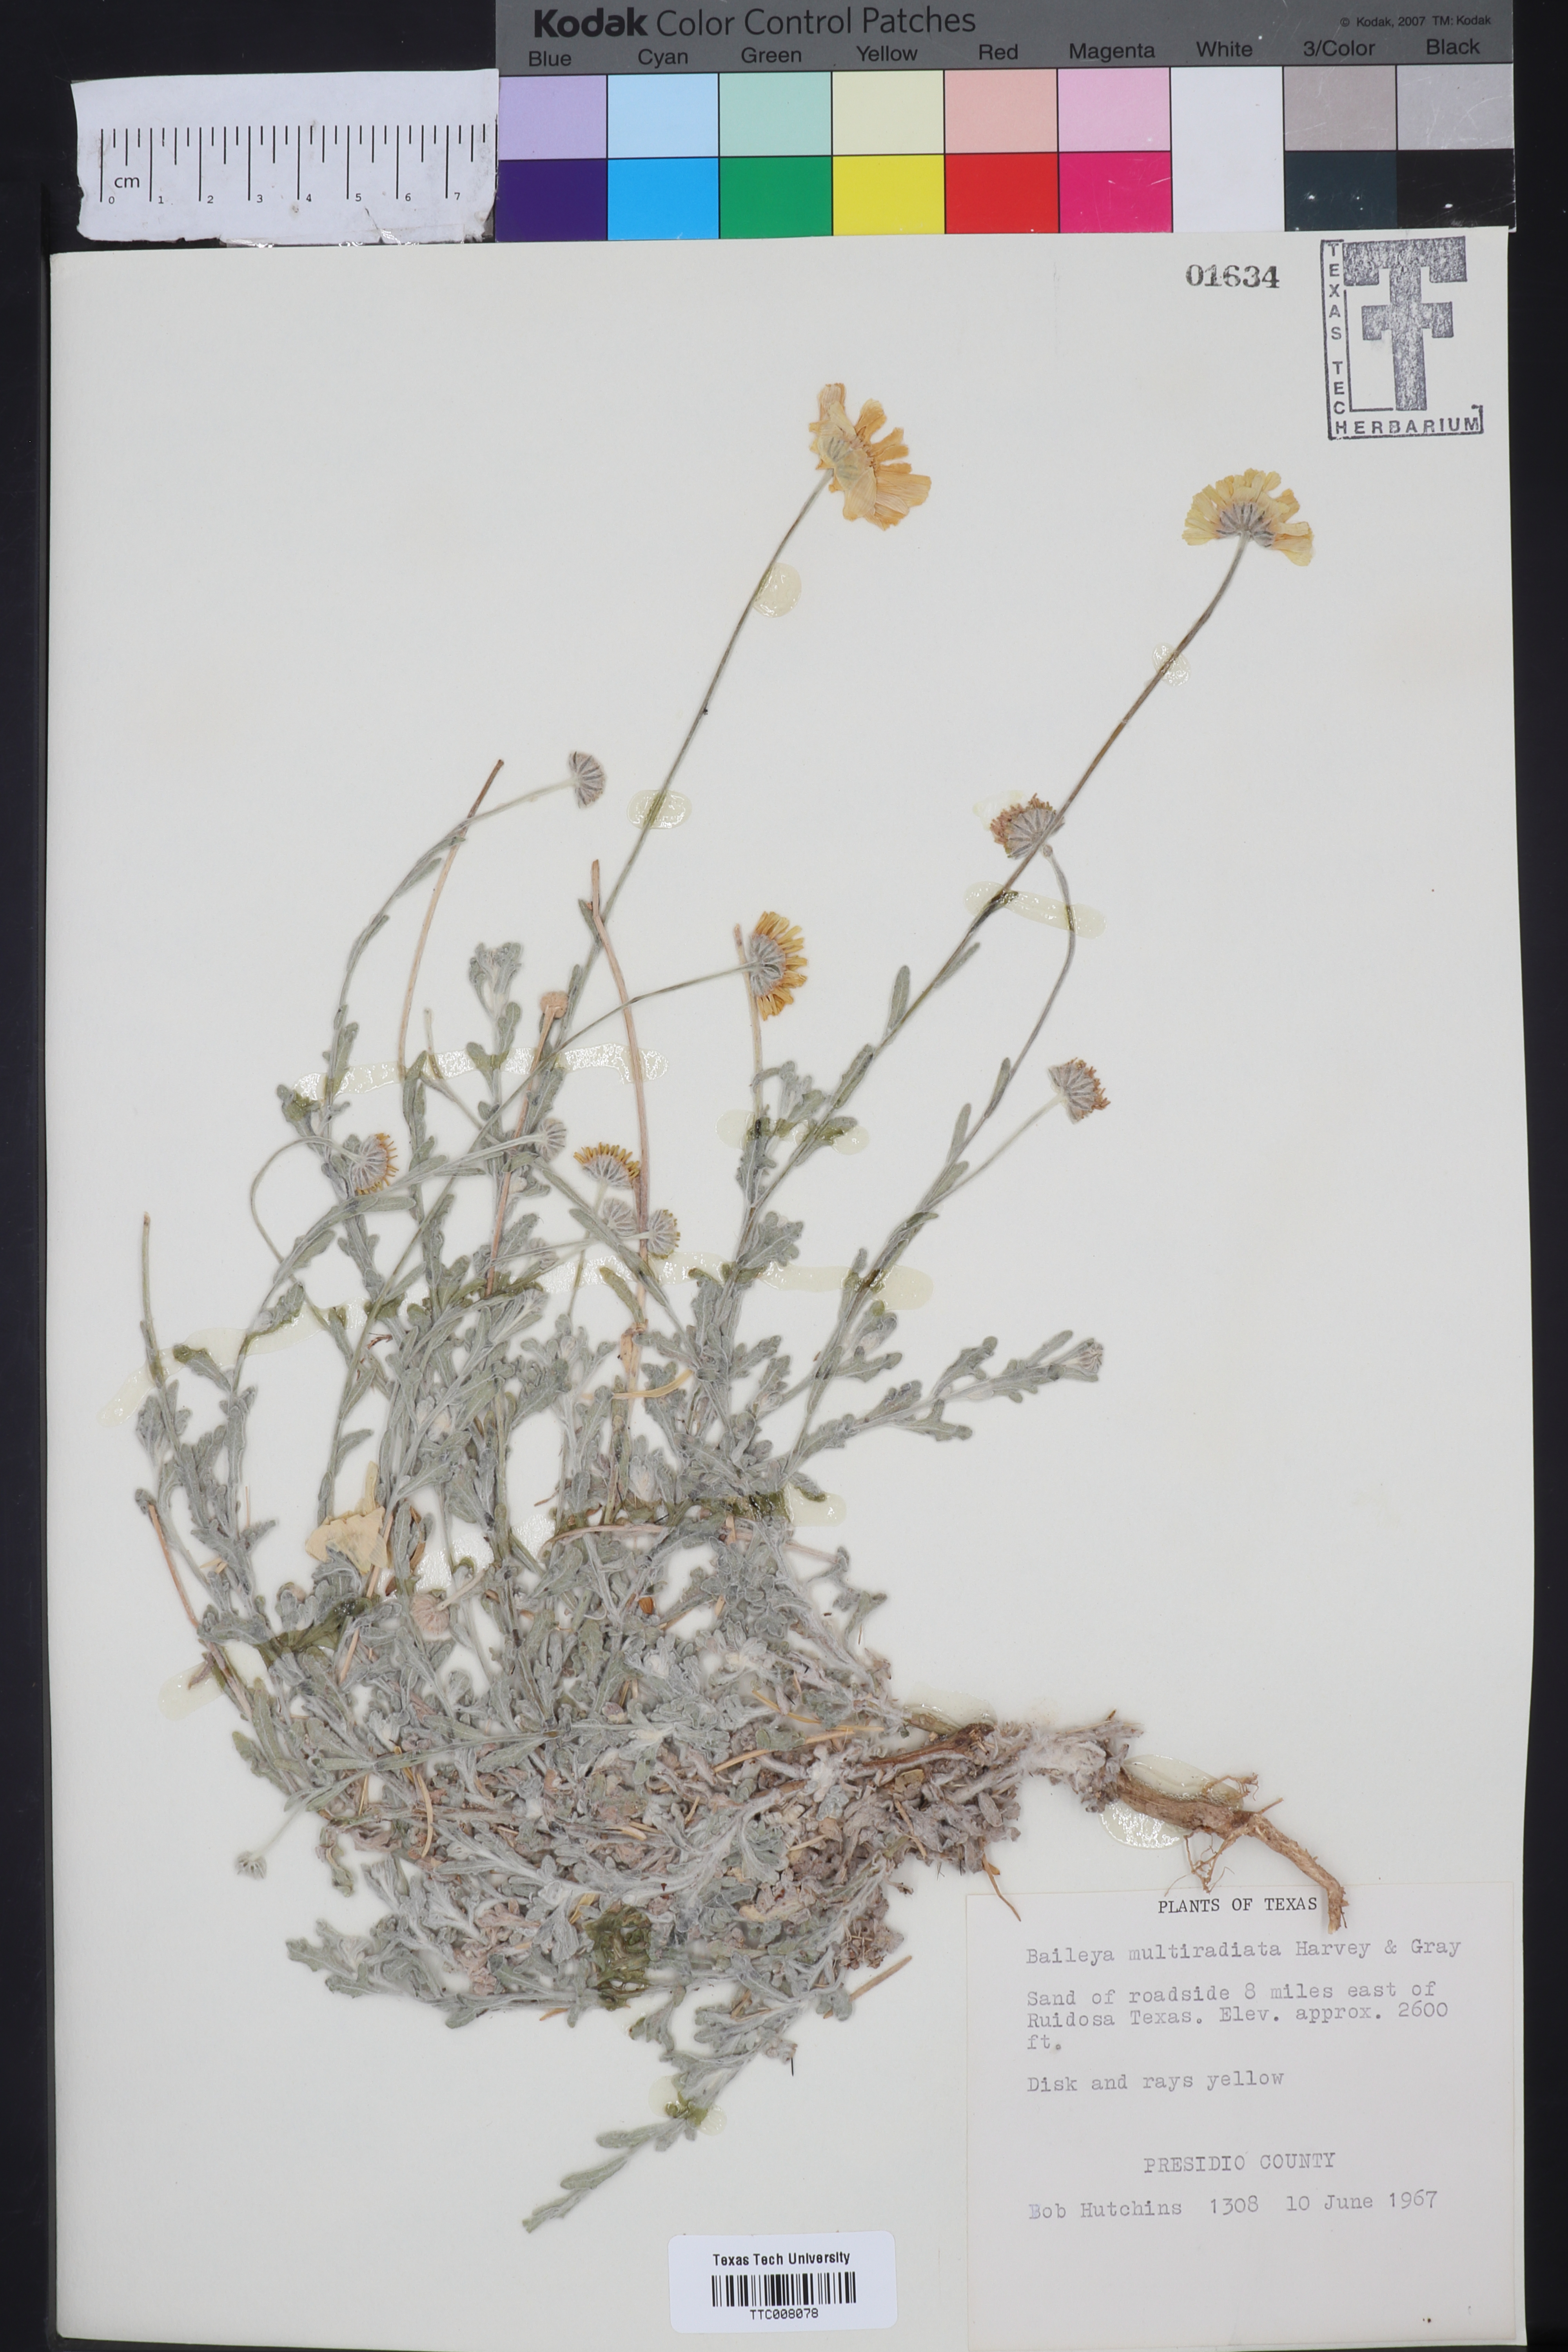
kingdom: Plantae
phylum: Tracheophyta
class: Magnoliopsida
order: Asterales
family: Asteraceae
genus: Baileya
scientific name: Baileya multiradiata
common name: Desert-marigold
